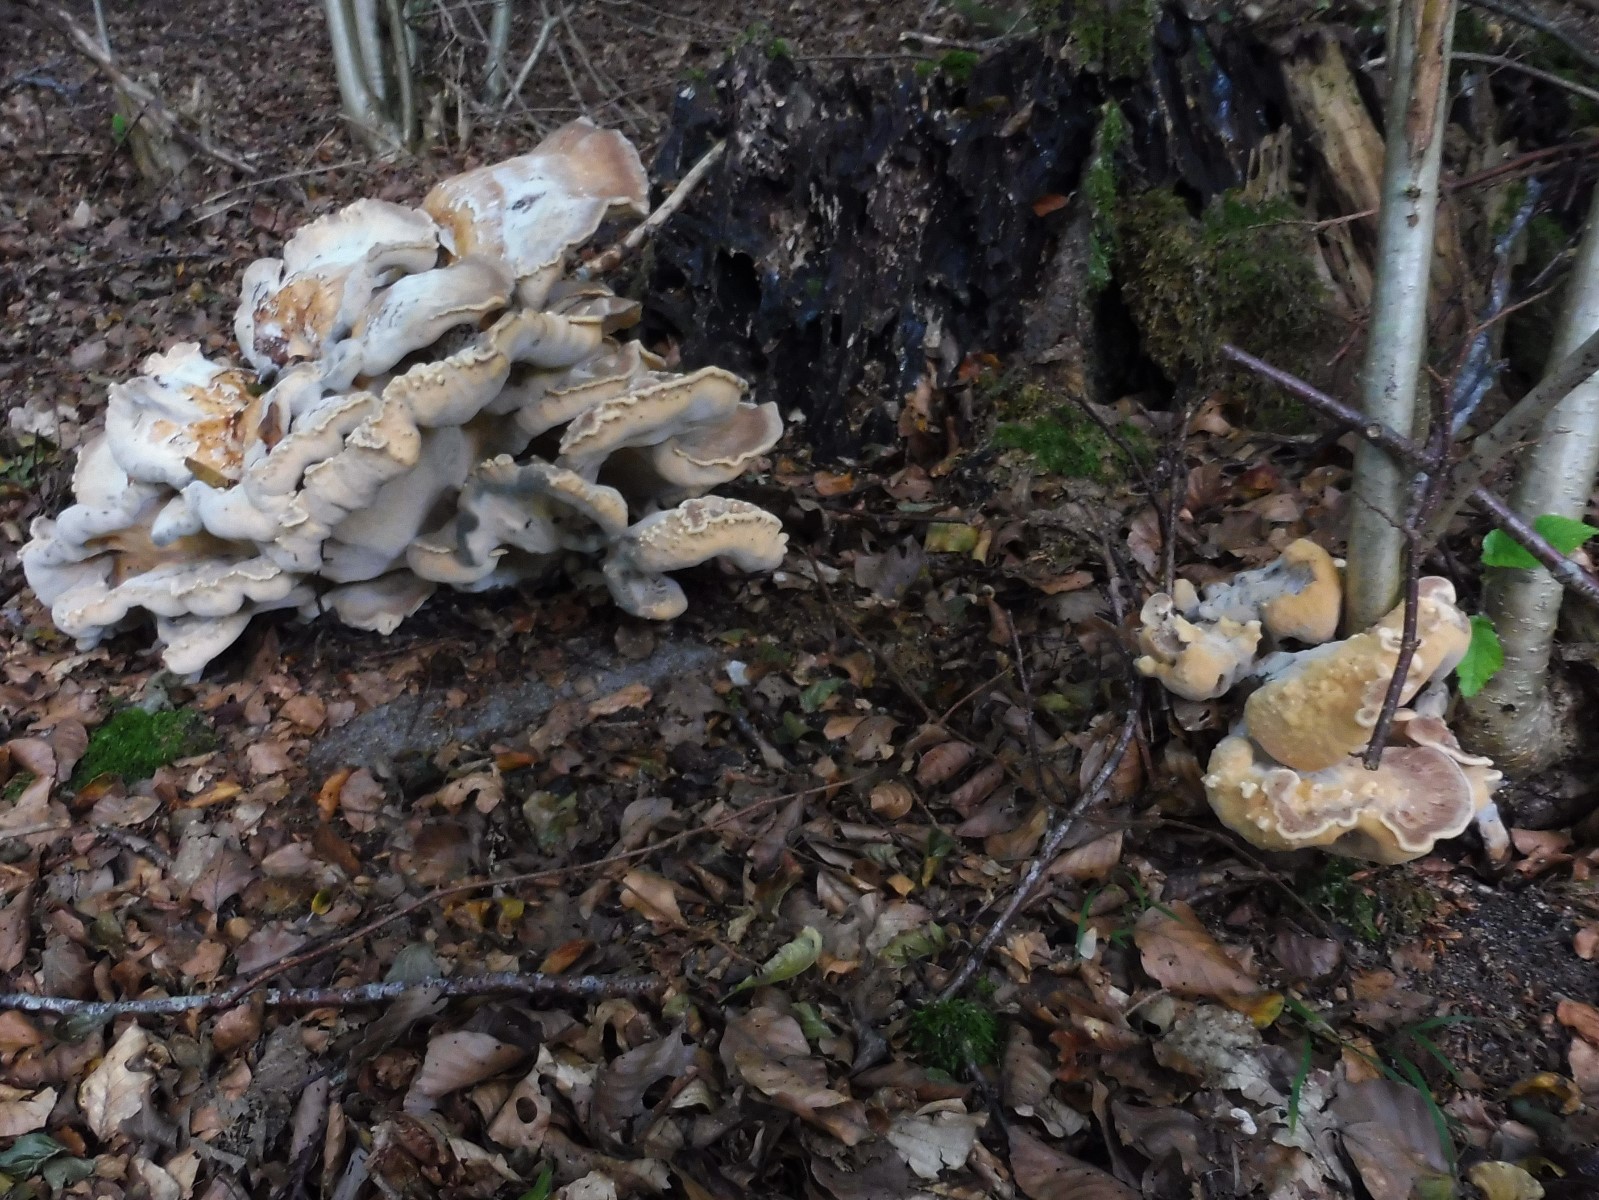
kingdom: Fungi
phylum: Basidiomycota
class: Agaricomycetes
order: Polyporales
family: Meripilaceae
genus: Meripilus
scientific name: Meripilus giganteus
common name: kæmpeporesvamp
